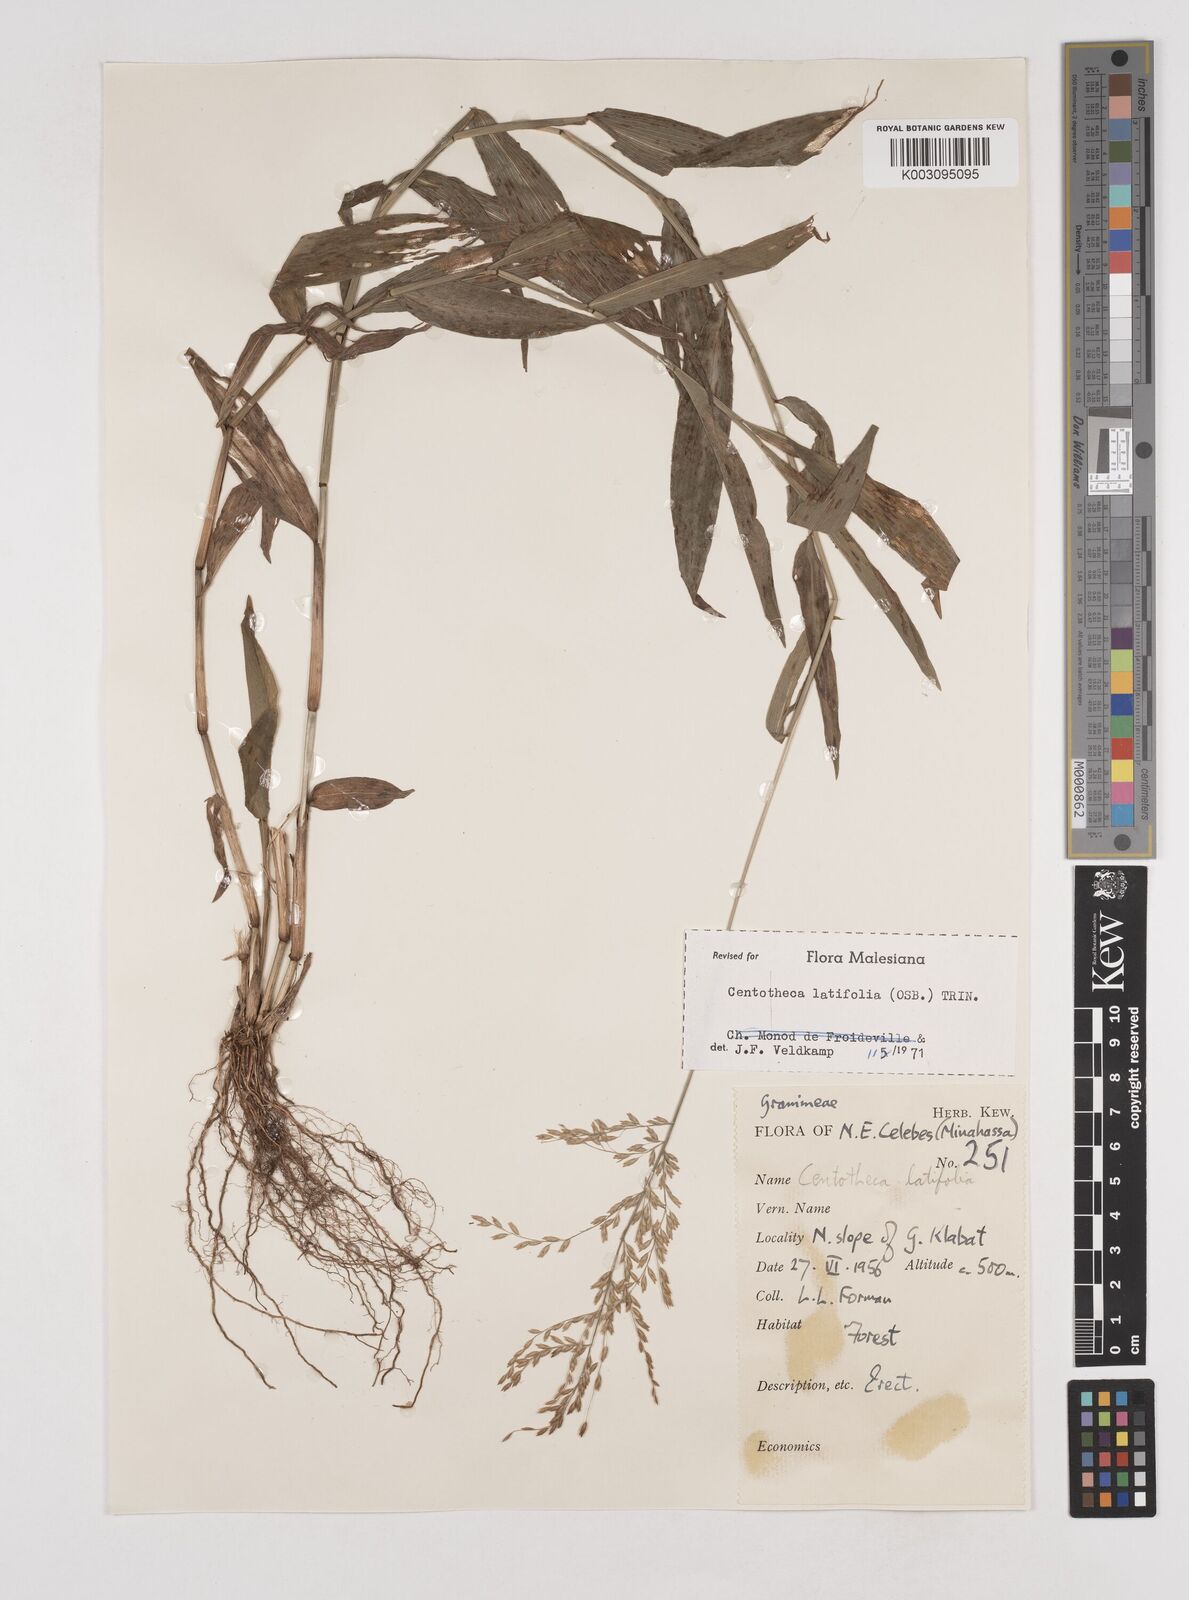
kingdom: Plantae
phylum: Tracheophyta
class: Liliopsida
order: Poales
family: Poaceae
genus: Centotheca
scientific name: Centotheca lappacea
